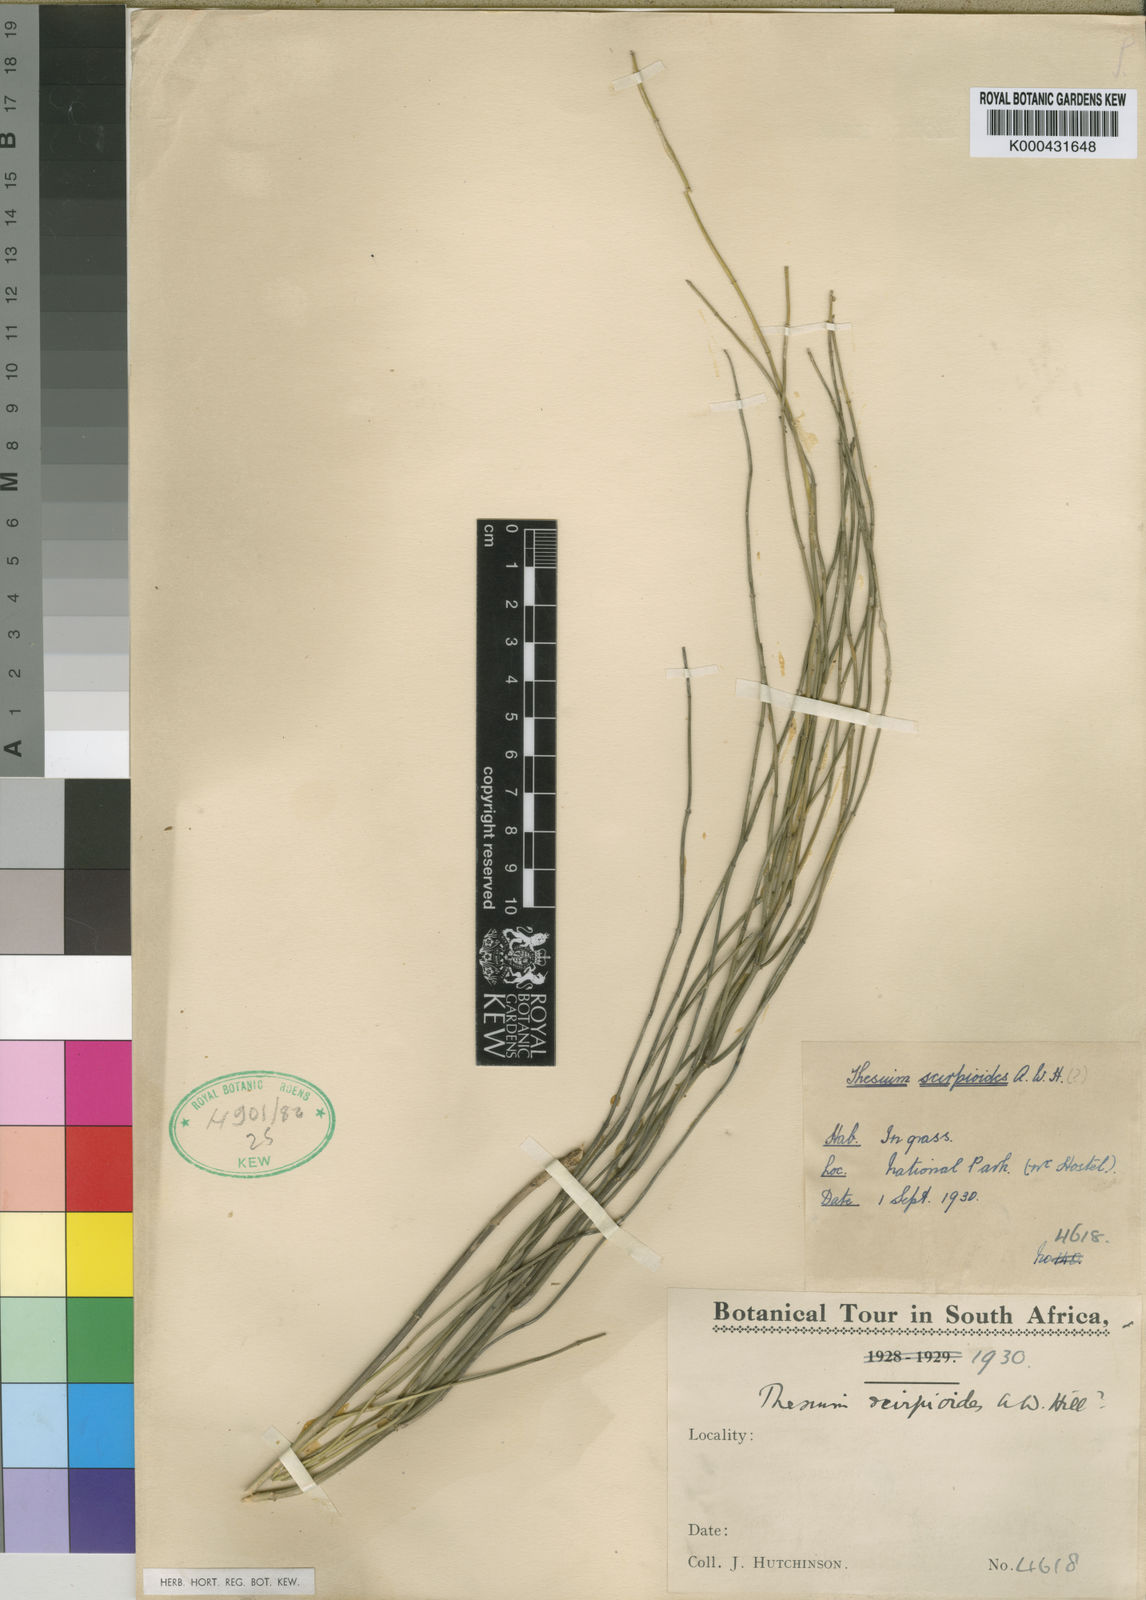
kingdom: Plantae
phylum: Tracheophyta
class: Magnoliopsida
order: Santalales
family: Thesiaceae
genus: Thesium
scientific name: Thesium scirpoides
